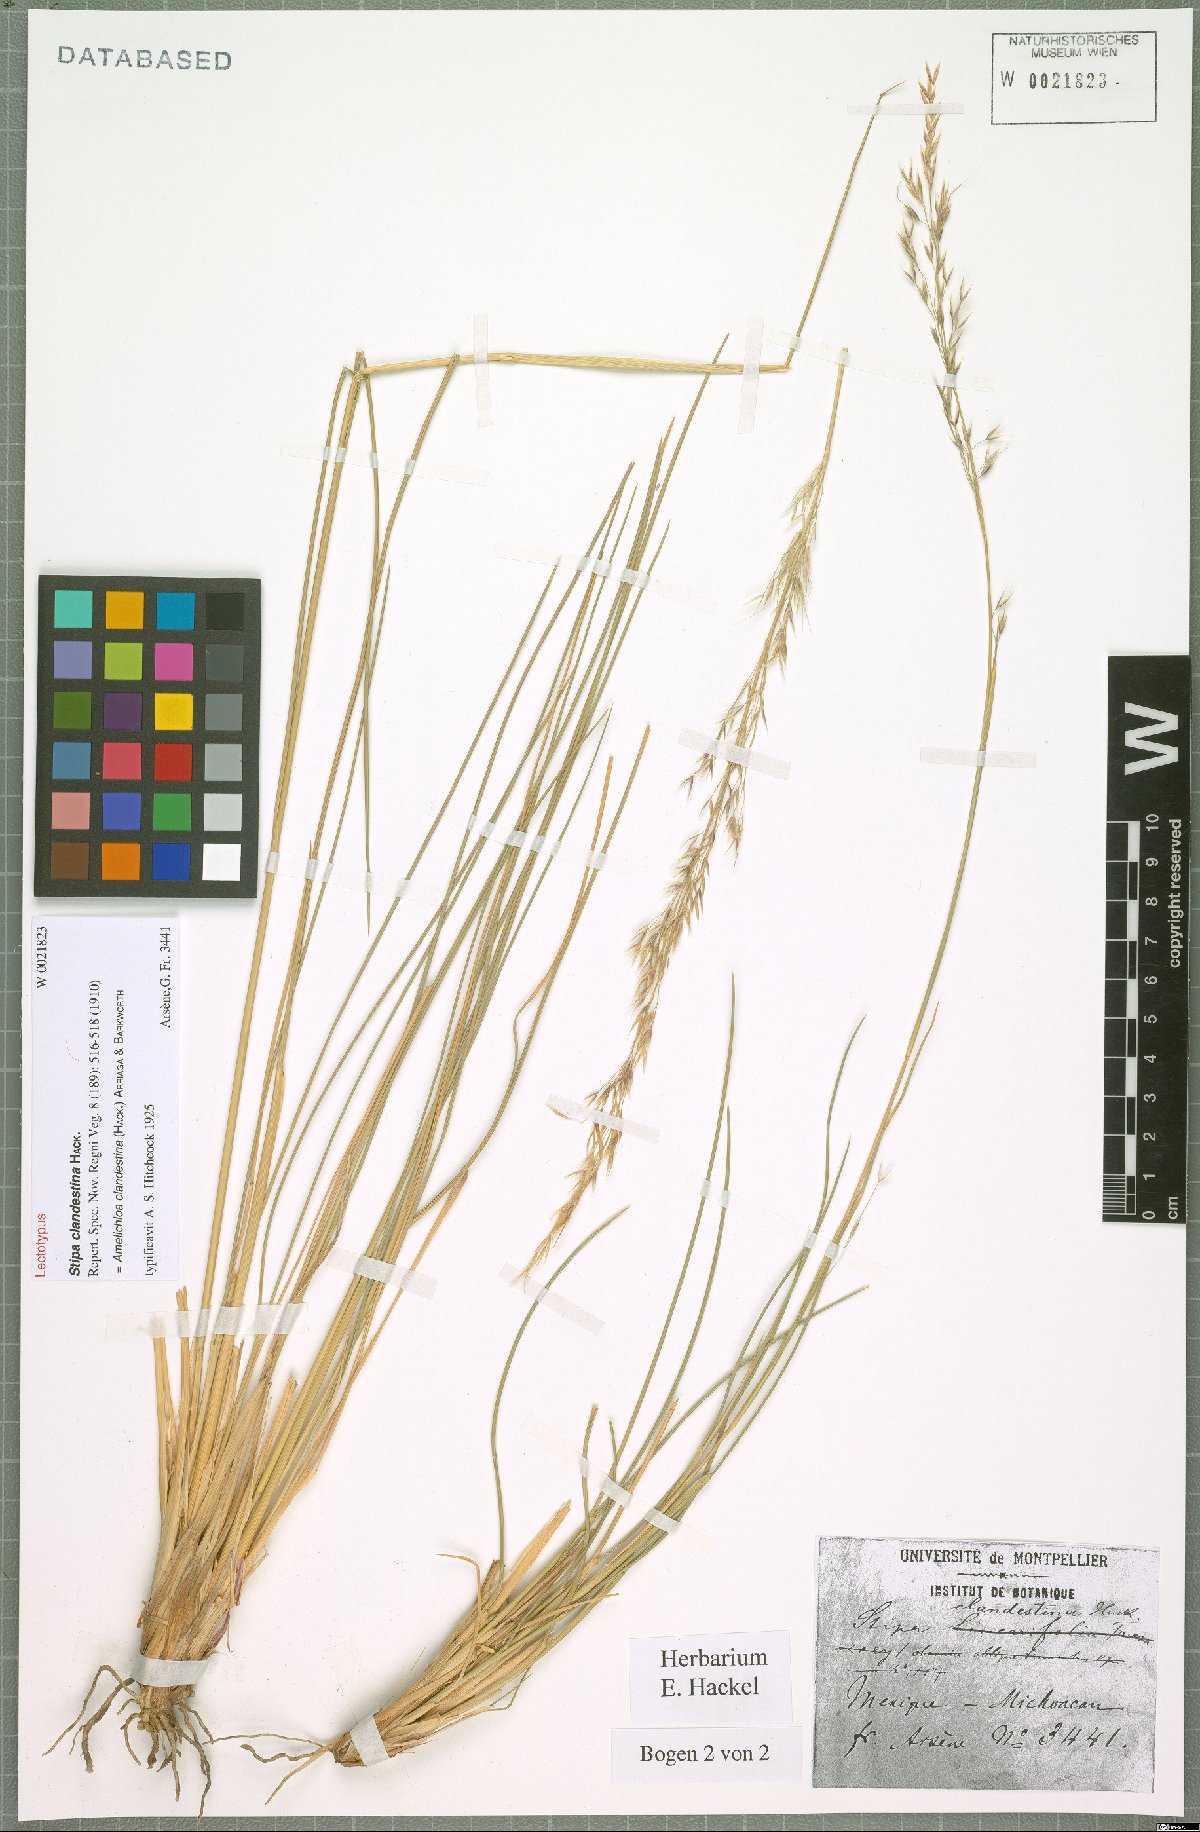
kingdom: Plantae
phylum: Tracheophyta
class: Liliopsida
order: Poales
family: Poaceae
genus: Amelichloa
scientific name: Amelichloa clandestina
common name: Mexican ricegrass
